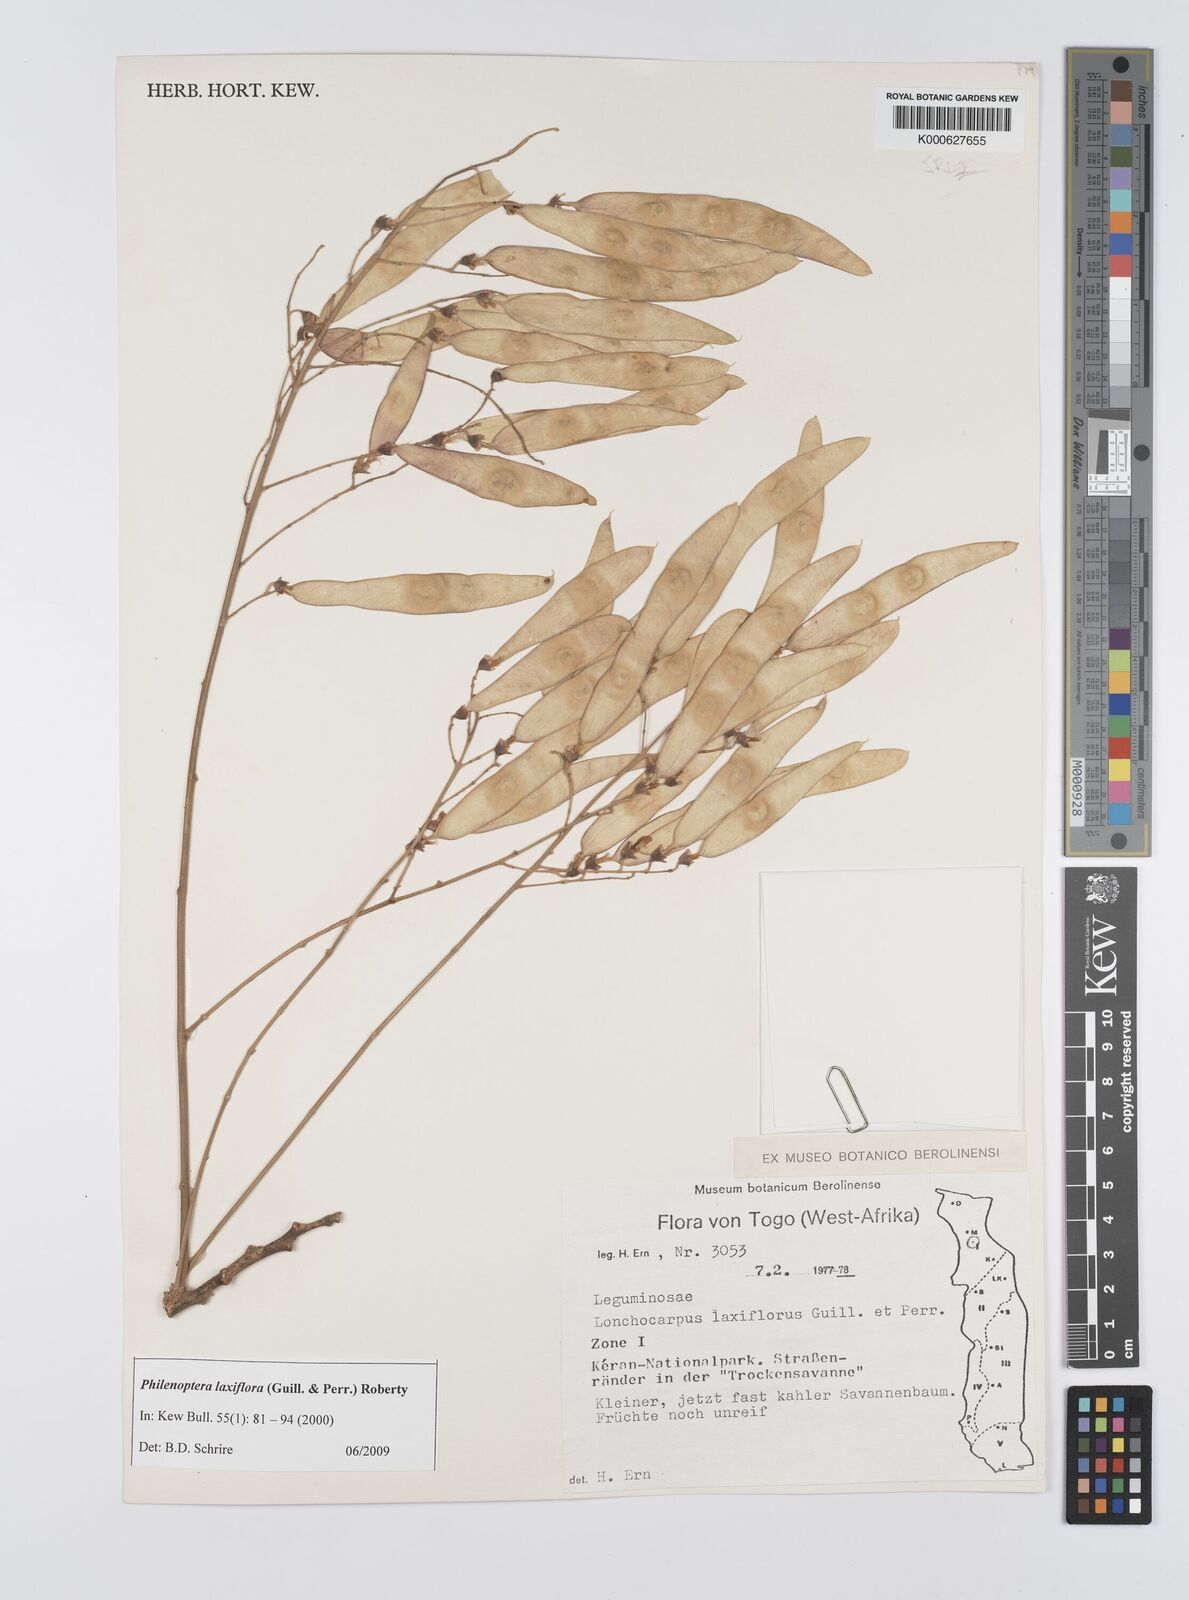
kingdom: Plantae
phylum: Tracheophyta
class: Magnoliopsida
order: Fabales
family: Fabaceae
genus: Philenoptera
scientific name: Philenoptera laxiflora
